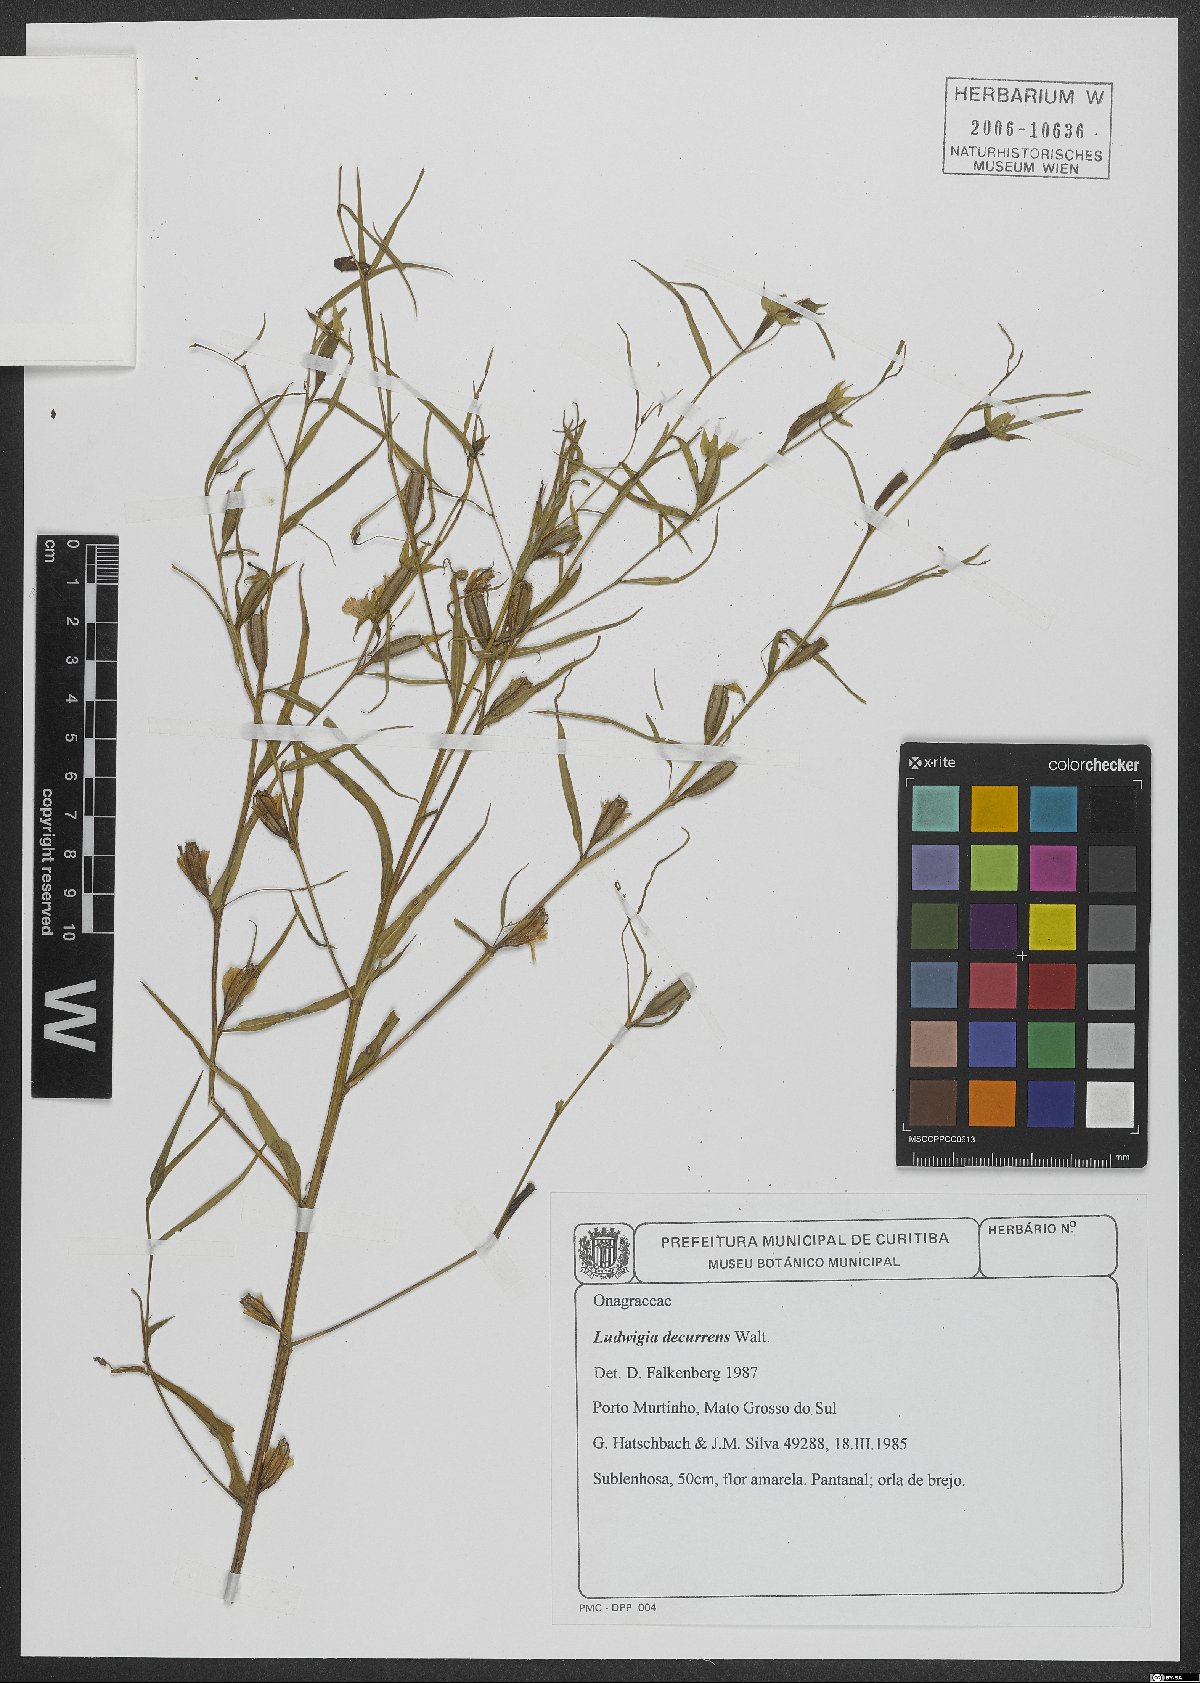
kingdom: Plantae
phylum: Tracheophyta
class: Magnoliopsida
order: Myrtales
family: Onagraceae
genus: Ludwigia
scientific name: Ludwigia decurrens
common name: Winged water-primrose
